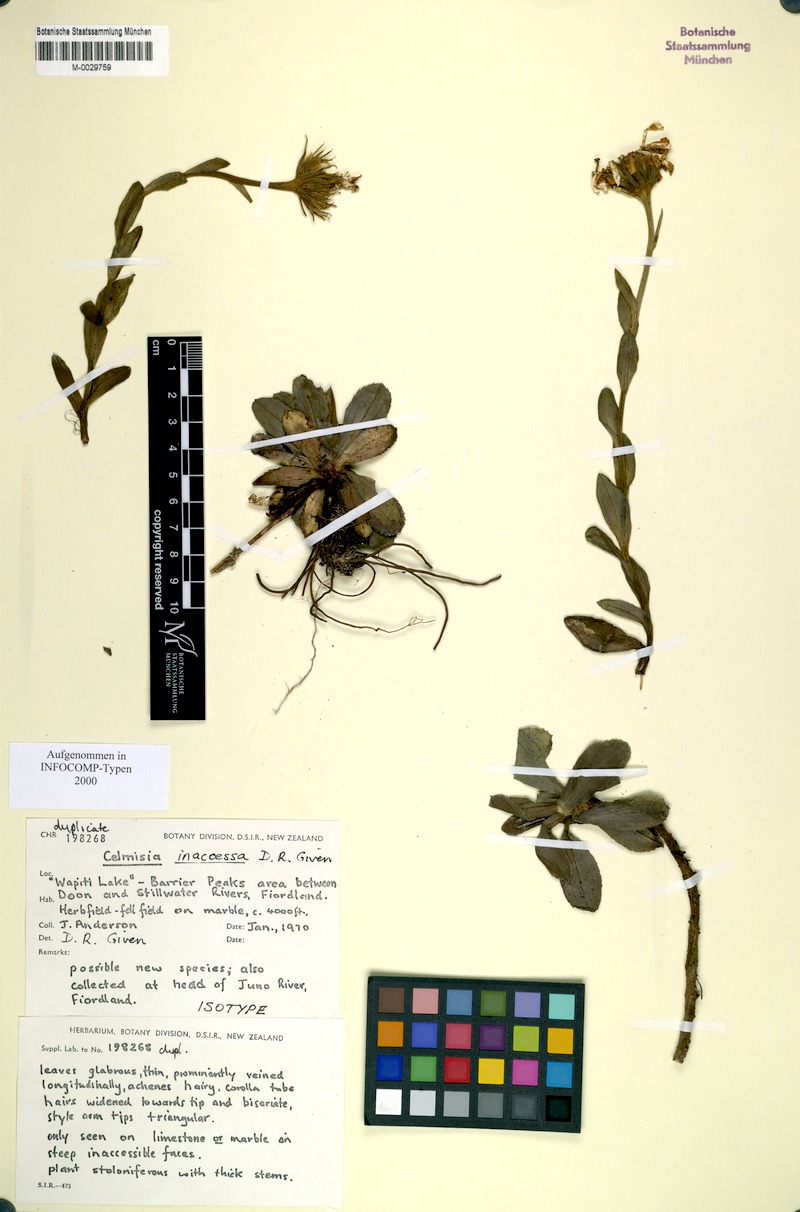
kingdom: Plantae
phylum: Tracheophyta
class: Magnoliopsida
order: Asterales
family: Asteraceae
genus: Celmisia
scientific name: Celmisia inaccessa
